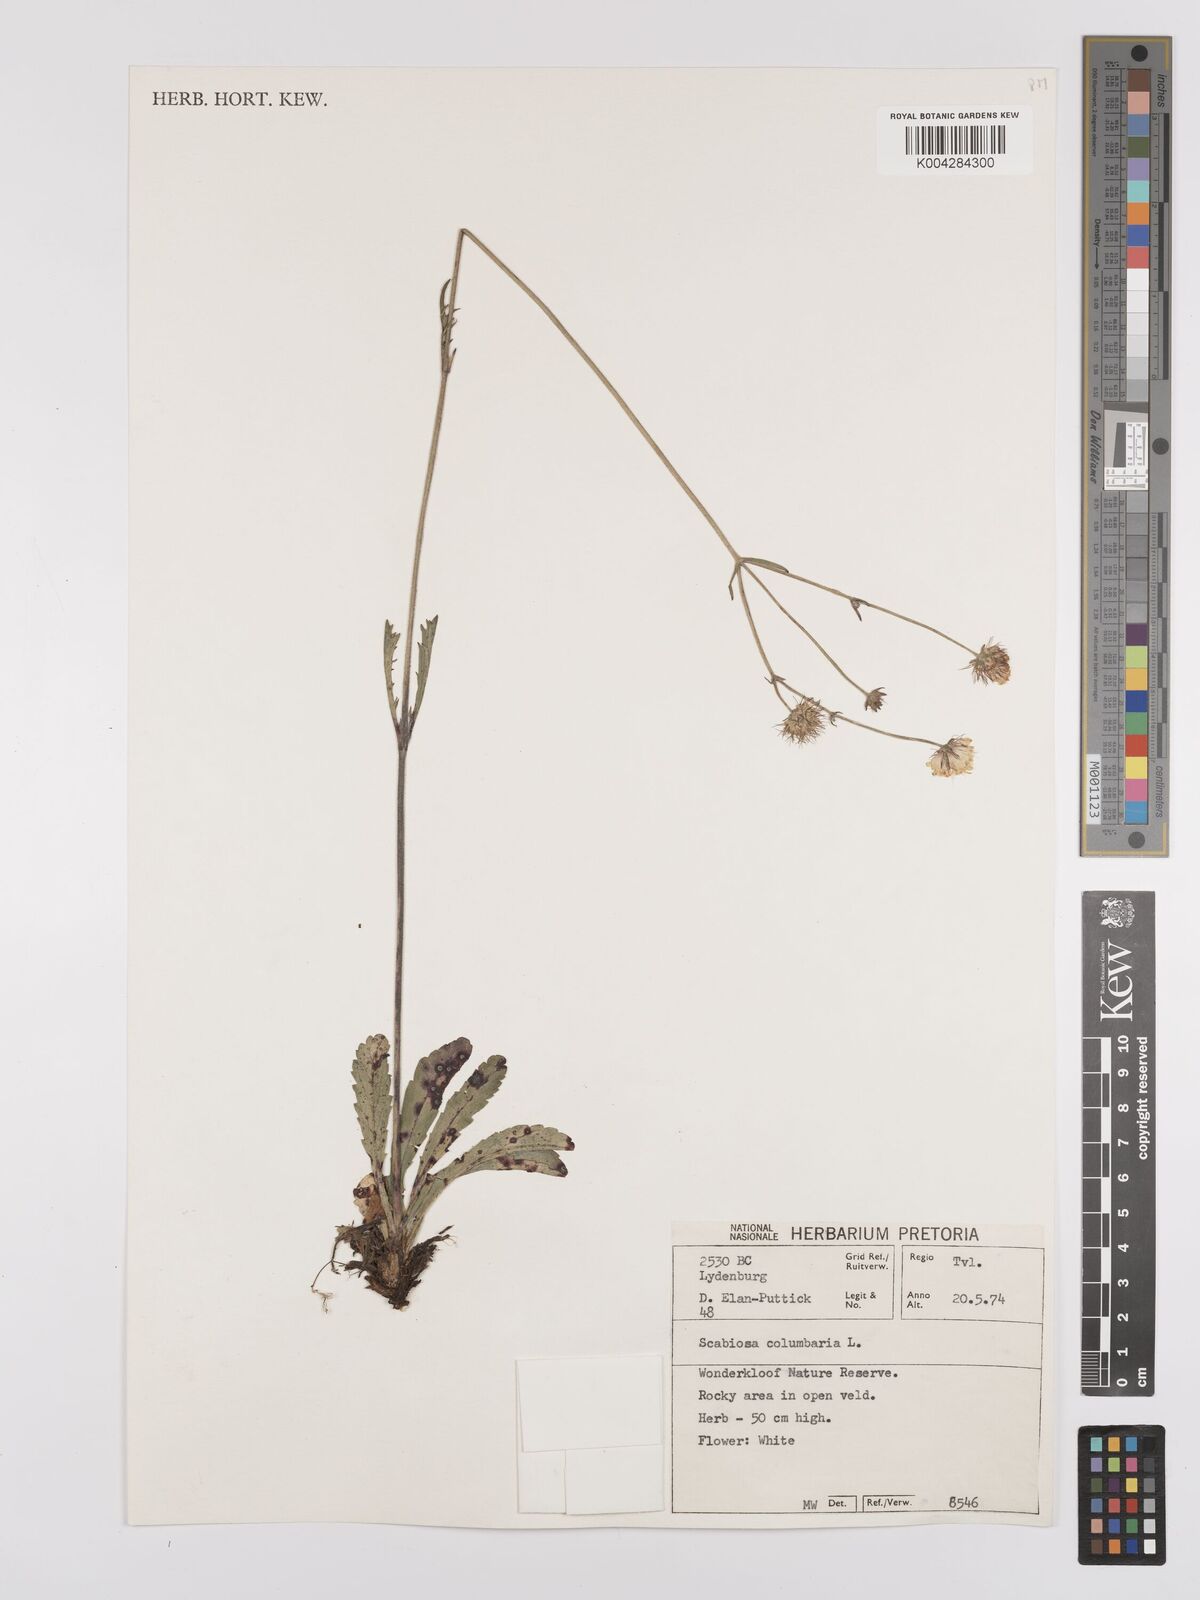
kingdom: Plantae
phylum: Tracheophyta
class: Magnoliopsida
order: Dipsacales
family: Caprifoliaceae
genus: Scabiosa
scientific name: Scabiosa austroafricana
